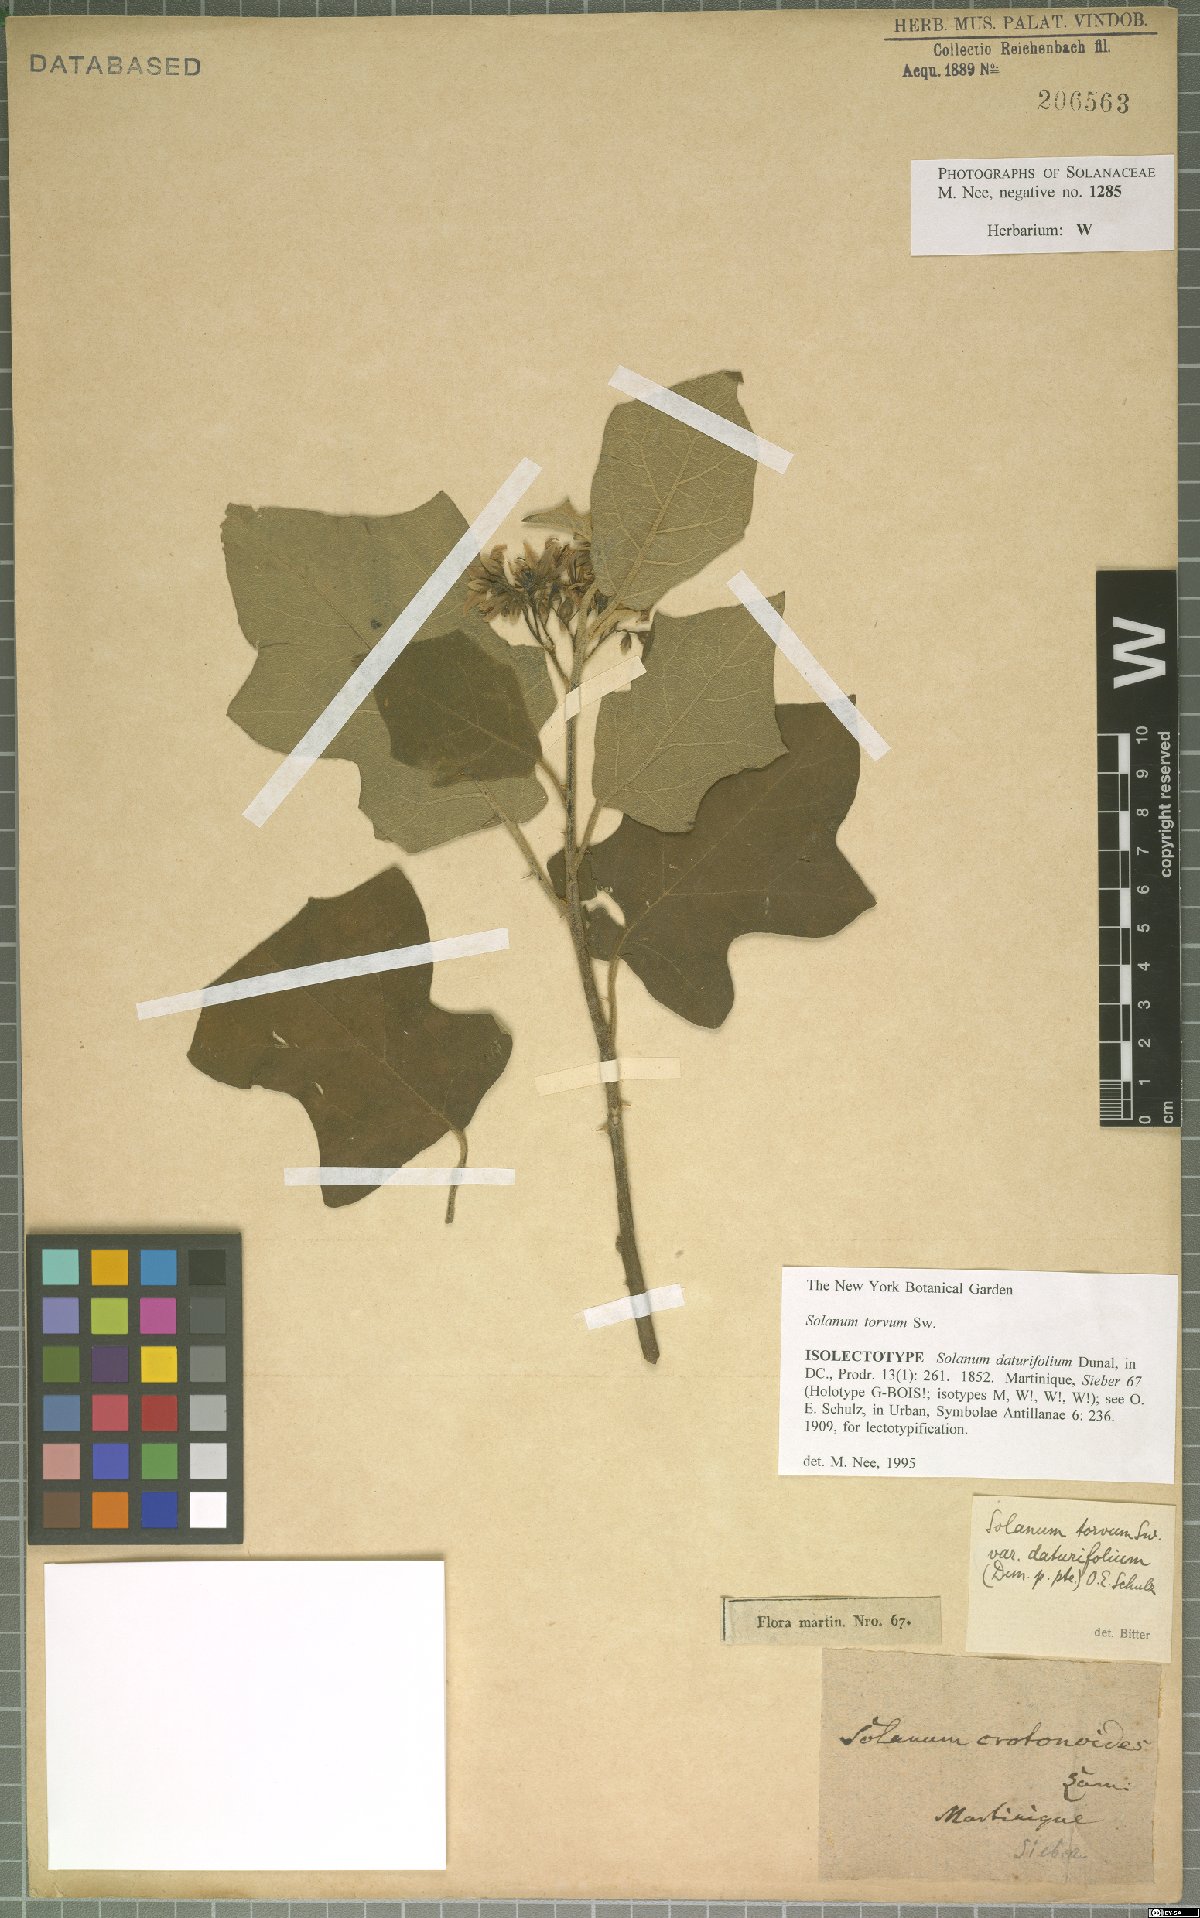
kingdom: Plantae
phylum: Tracheophyta
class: Magnoliopsida
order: Solanales
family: Solanaceae
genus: Solanum
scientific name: Solanum torvum
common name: Turkey berry
